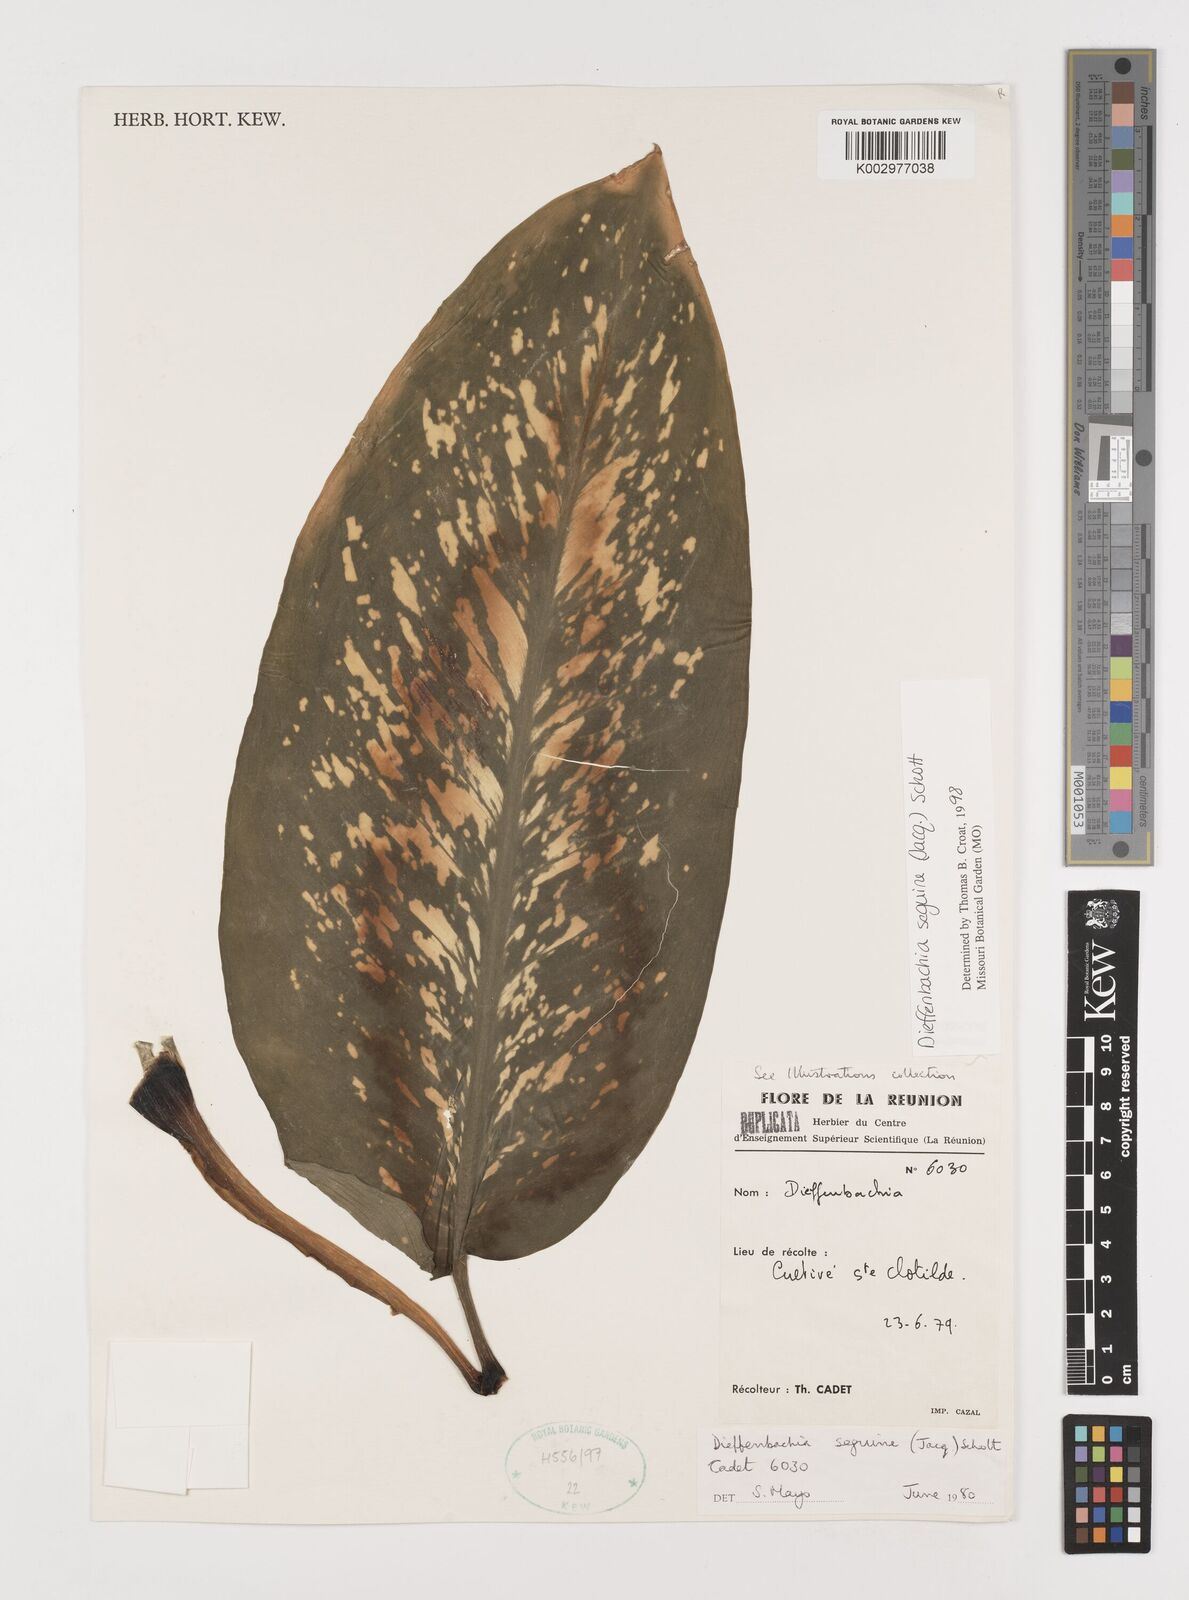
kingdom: Plantae
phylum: Tracheophyta
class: Liliopsida
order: Alismatales
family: Araceae
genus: Dieffenbachia
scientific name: Dieffenbachia seguine
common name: Dumbcane
